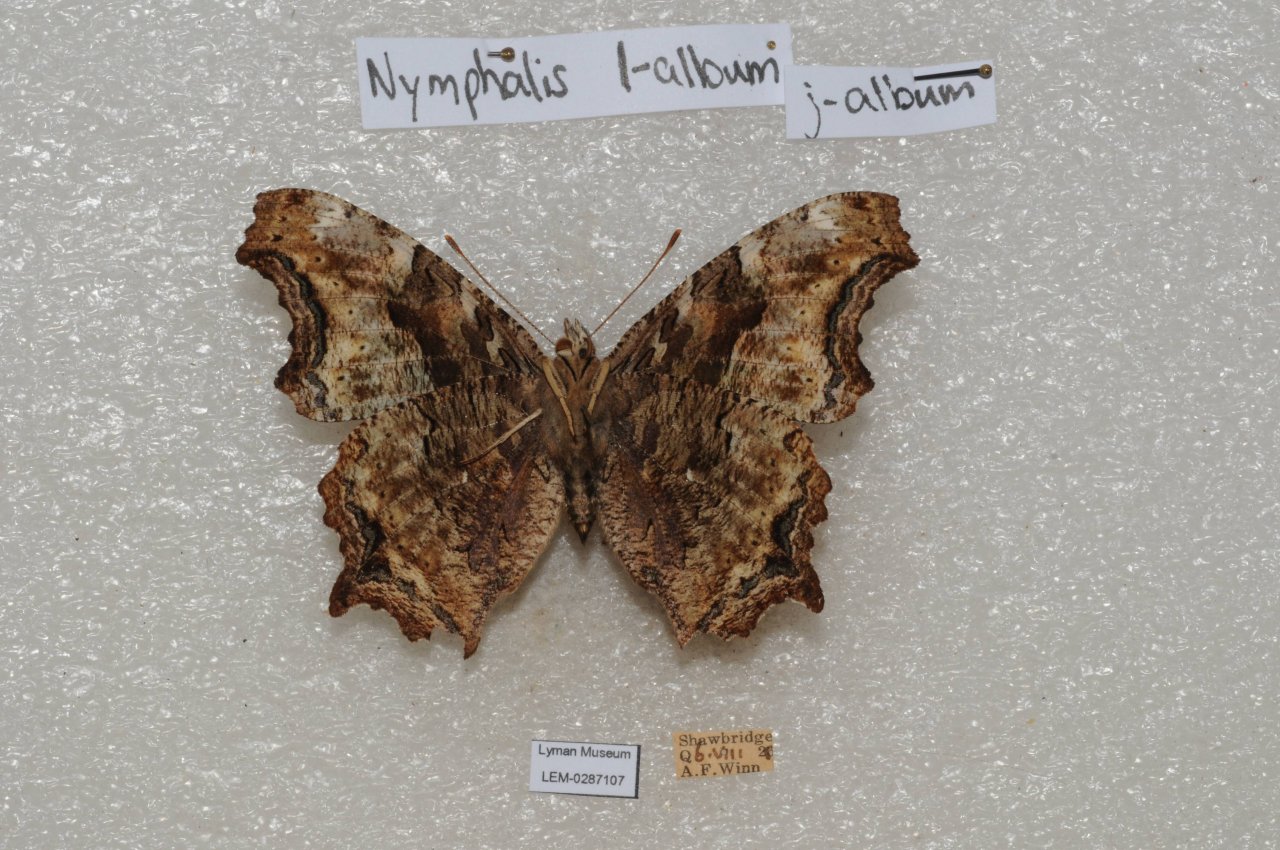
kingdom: Animalia
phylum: Arthropoda
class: Insecta
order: Lepidoptera
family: Nymphalidae
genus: Polygonia
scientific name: Polygonia vaualbum
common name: Compton Tortoiseshell
